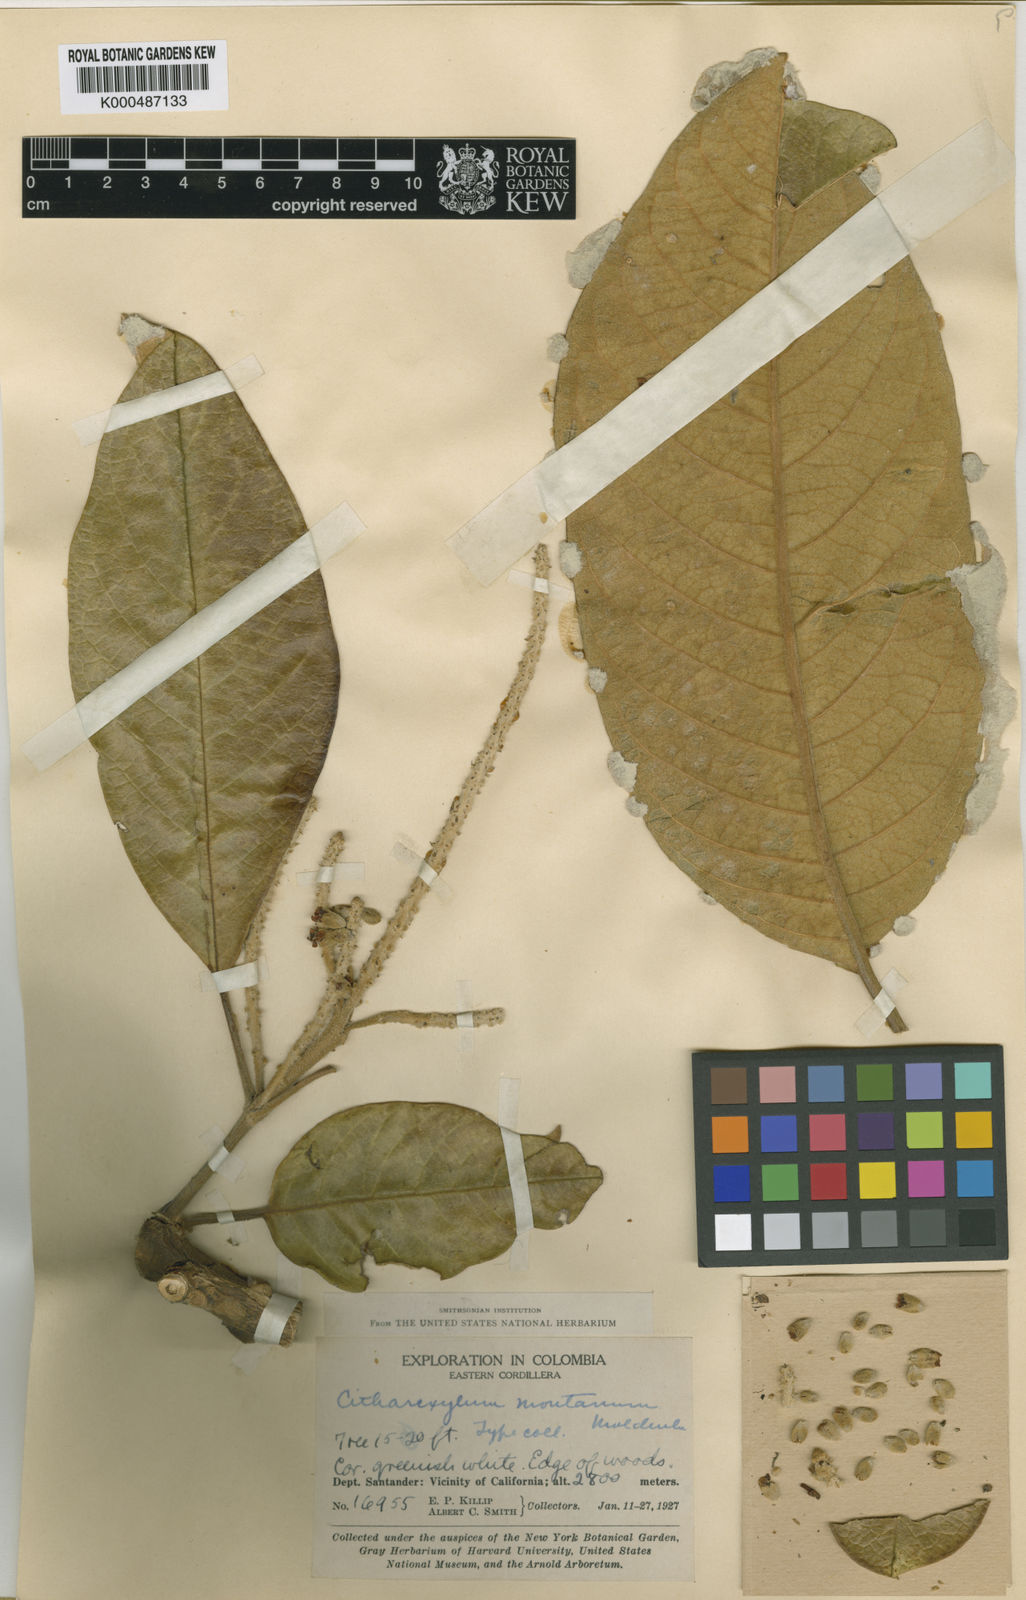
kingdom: Plantae
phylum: Tracheophyta
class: Magnoliopsida
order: Lamiales
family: Verbenaceae
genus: Citharexylum
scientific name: Citharexylum montanum
